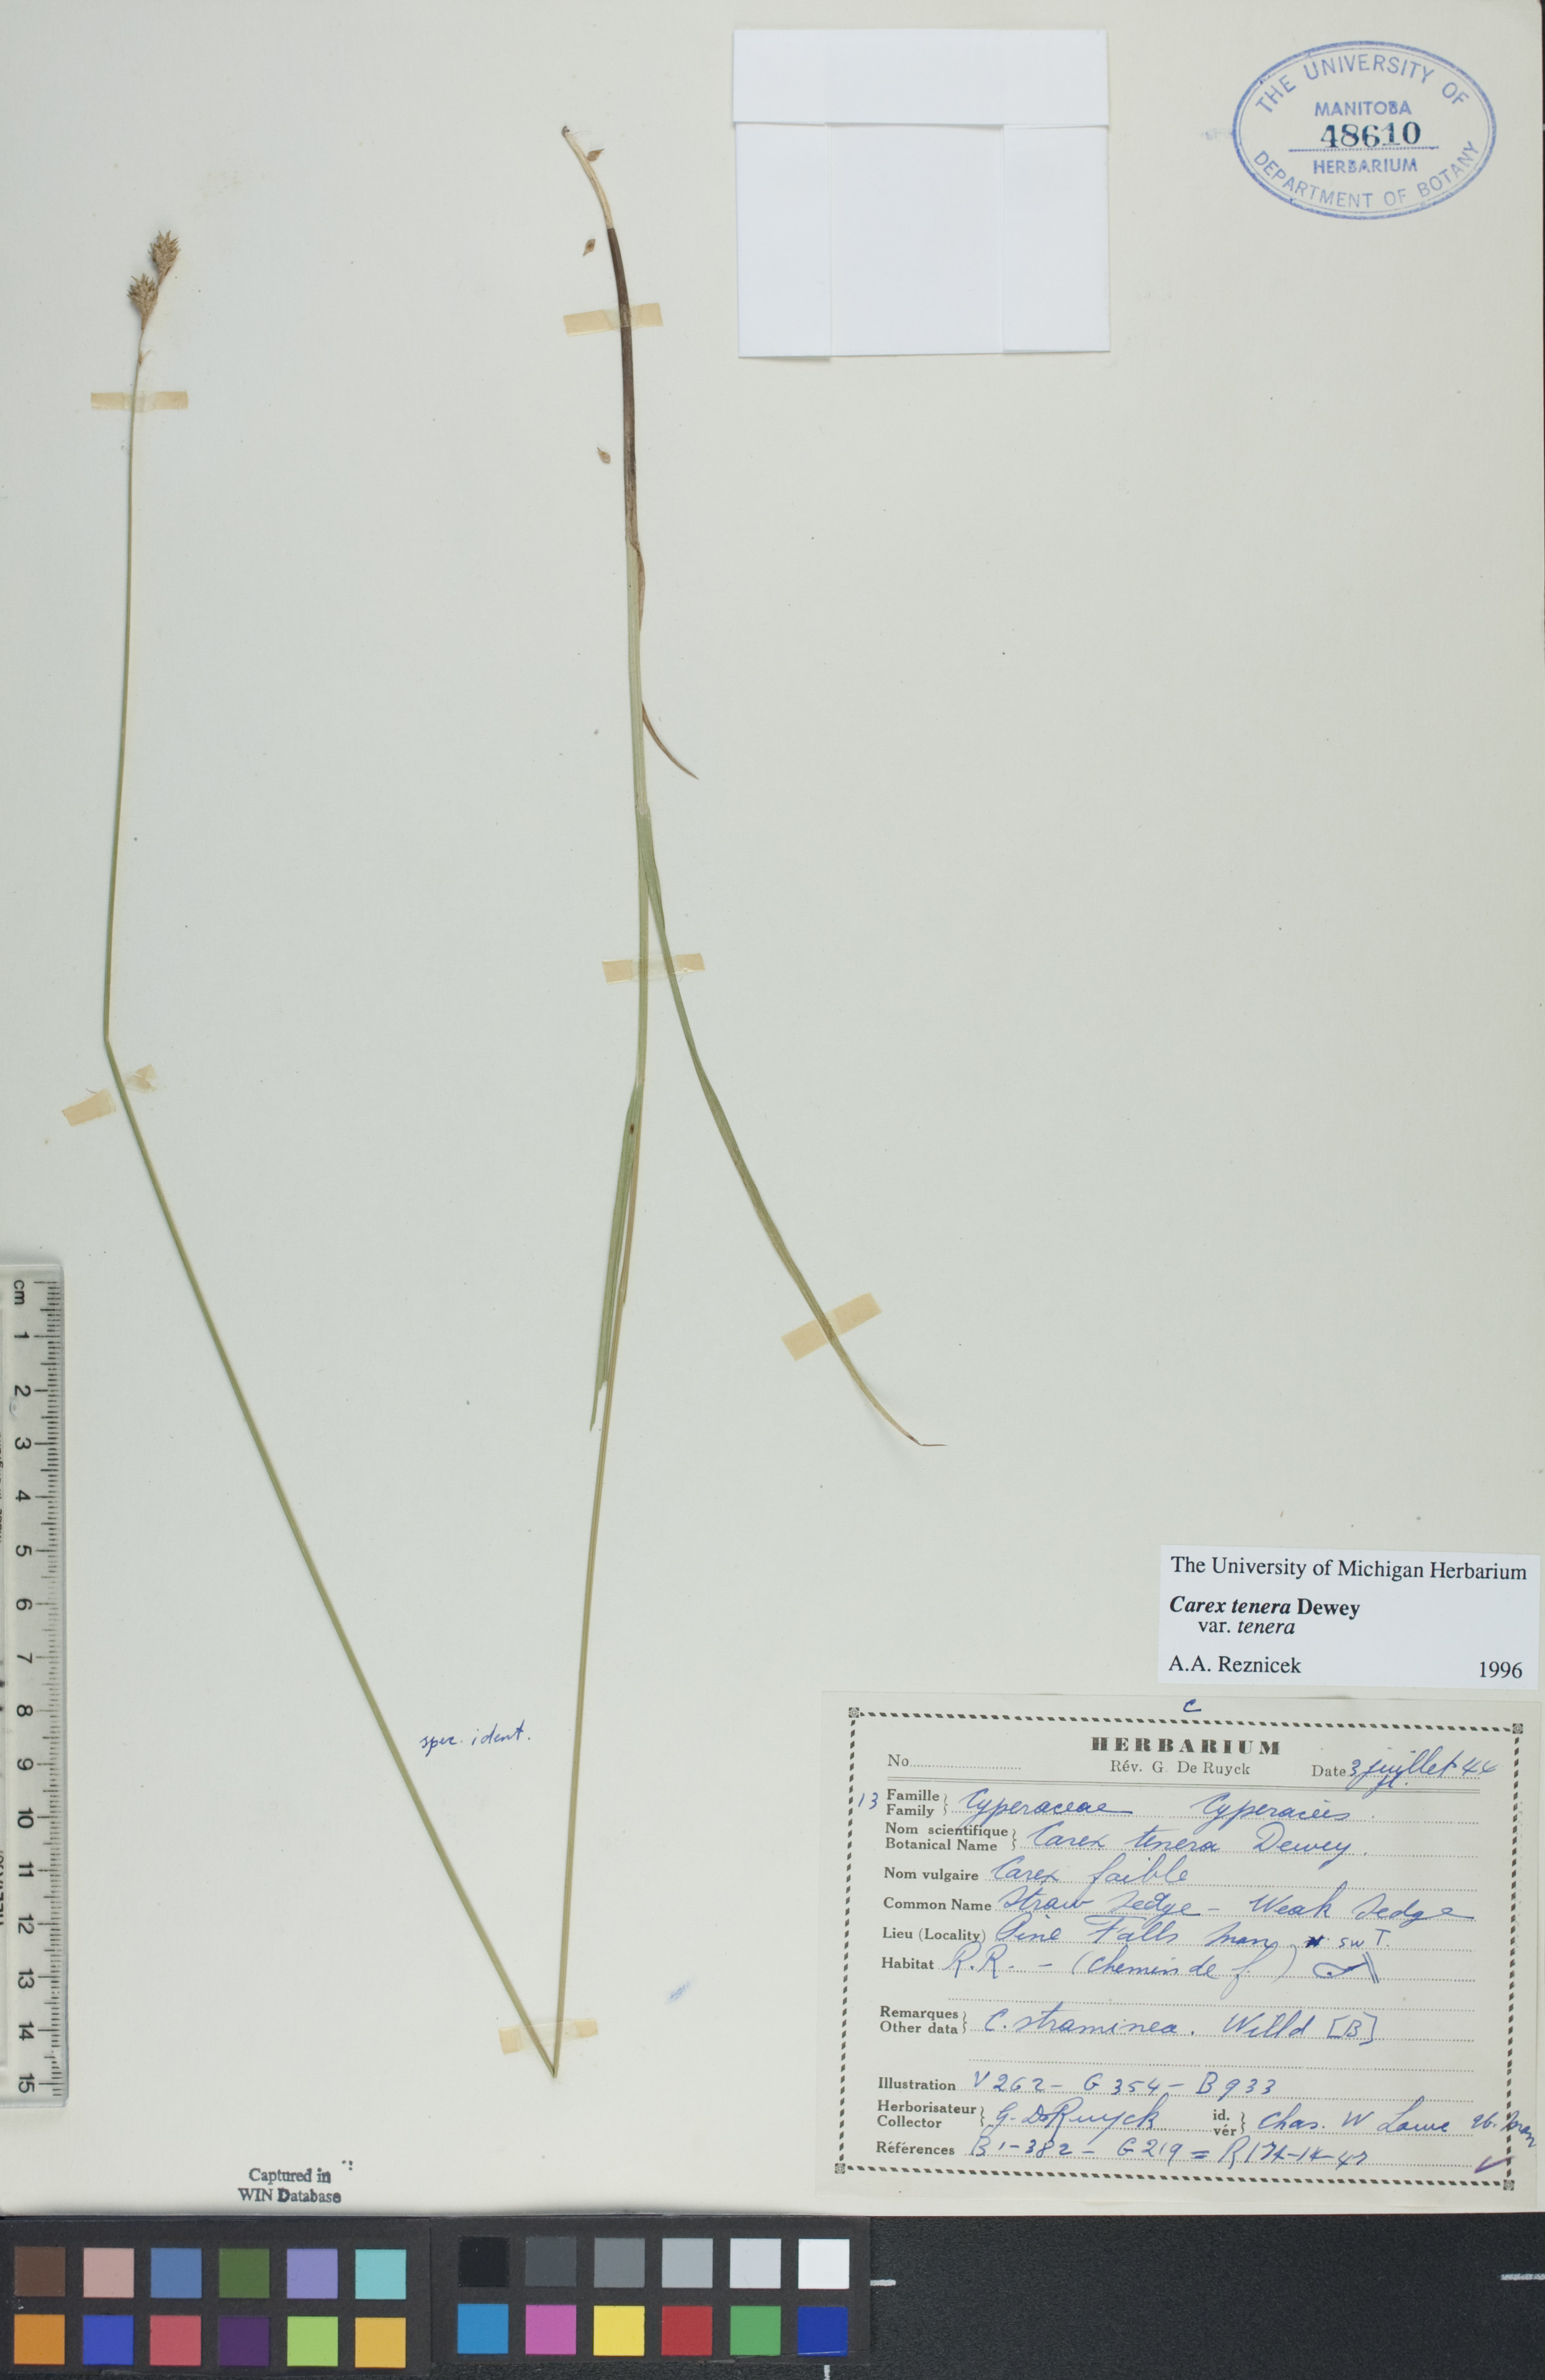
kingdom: Plantae
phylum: Tracheophyta
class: Liliopsida
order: Poales
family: Cyperaceae
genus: Carex
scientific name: Carex tenera
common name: Broad-fruited sedge
